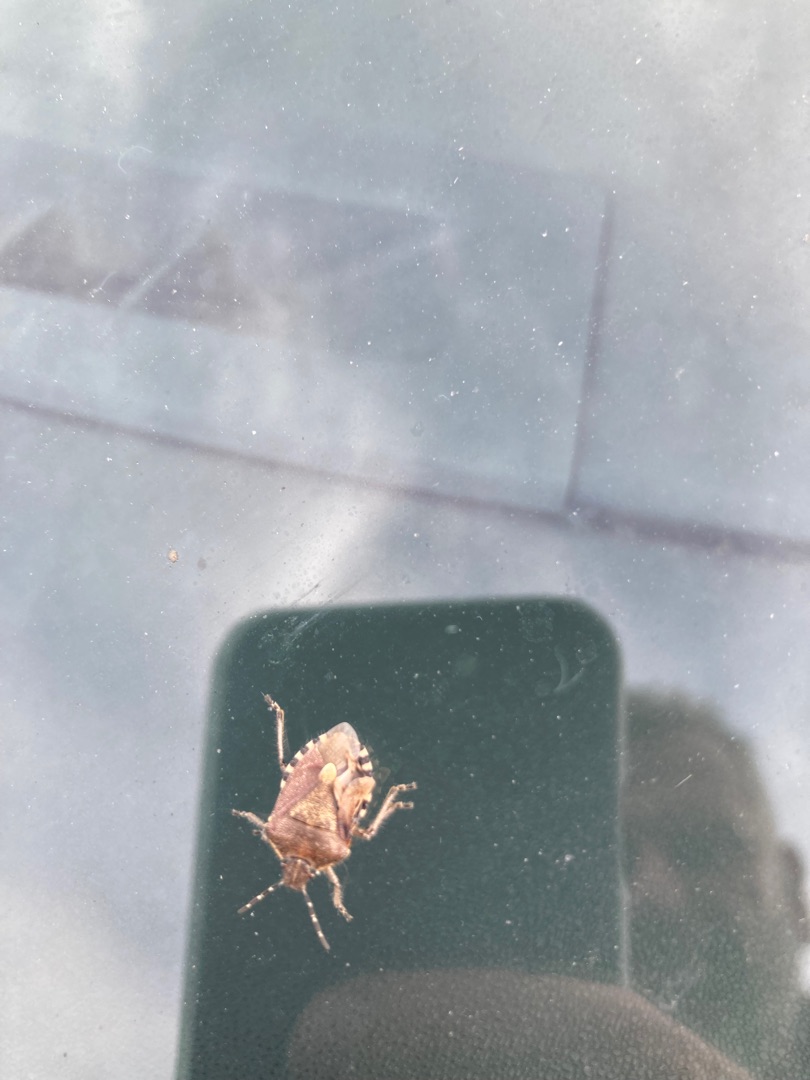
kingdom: Animalia
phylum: Arthropoda
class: Insecta
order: Hemiptera
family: Pentatomidae
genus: Dolycoris
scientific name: Dolycoris baccarum
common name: Almindelig bærtæge
